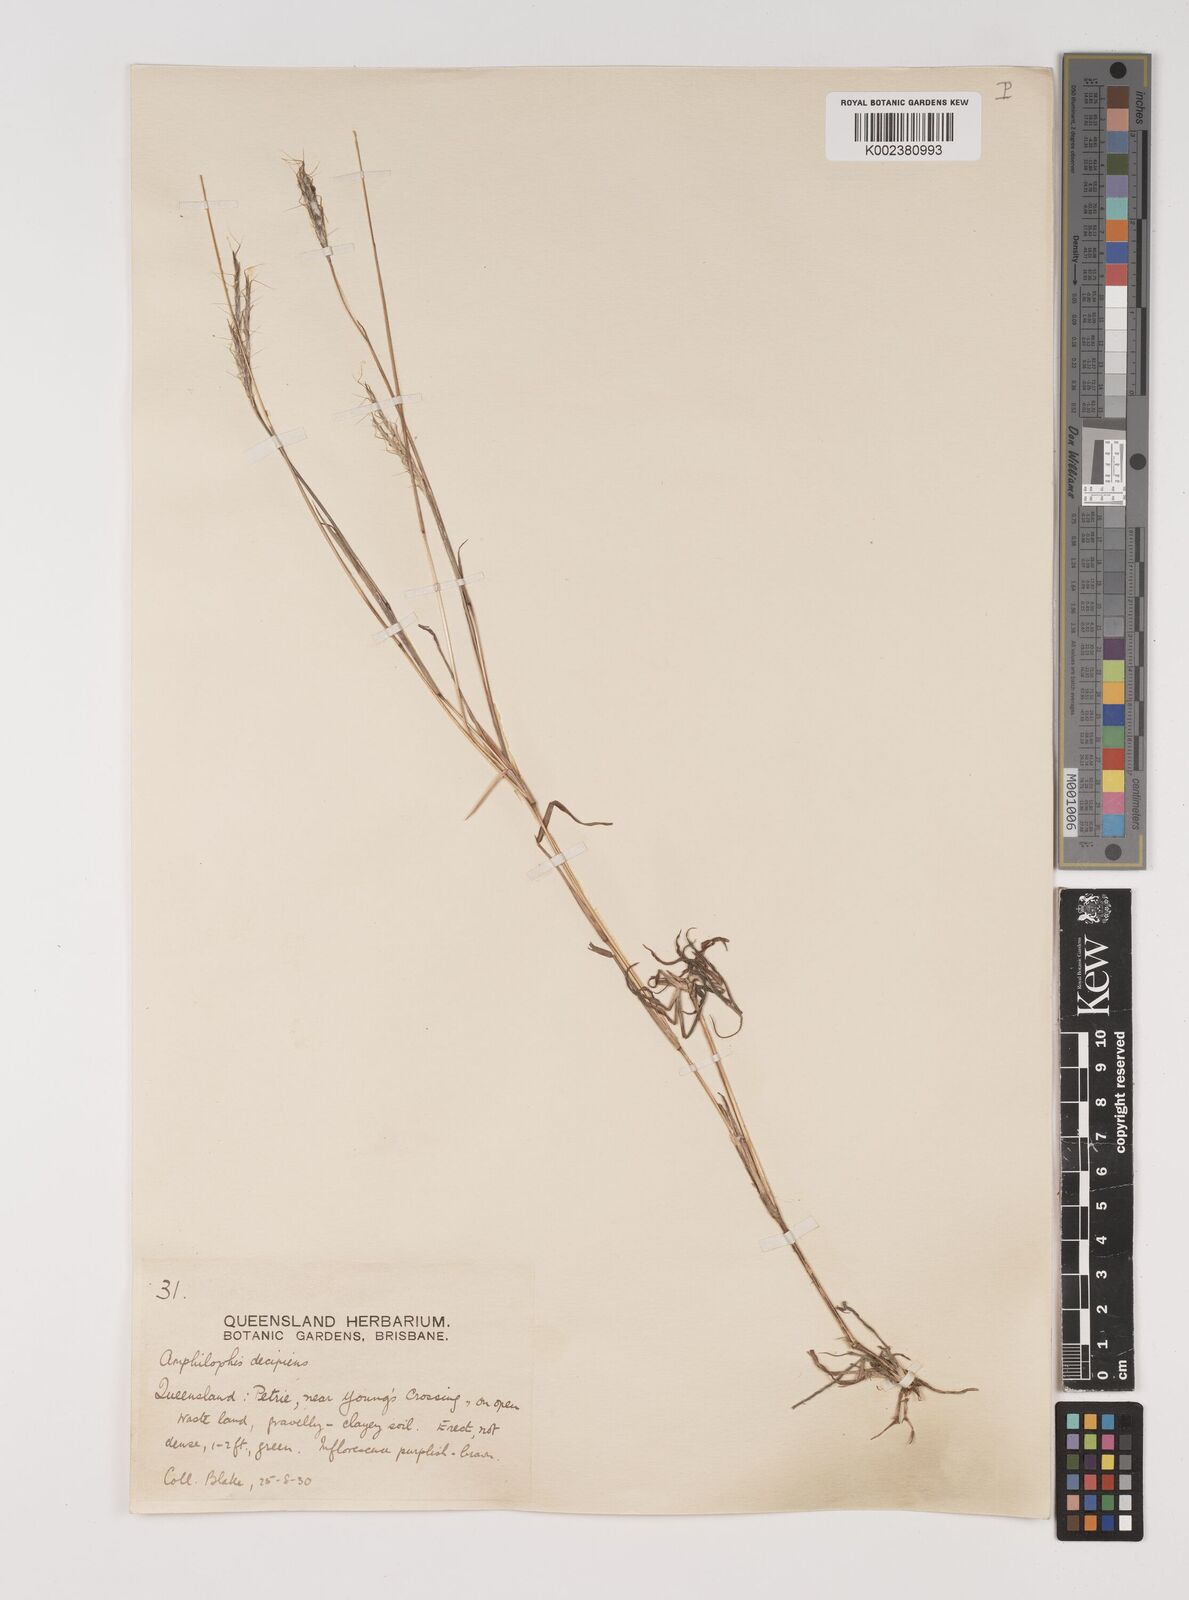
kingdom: Plantae
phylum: Tracheophyta
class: Liliopsida
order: Poales
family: Poaceae
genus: Bothriochloa
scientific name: Bothriochloa decipiens
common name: Pitted-bluegrass
